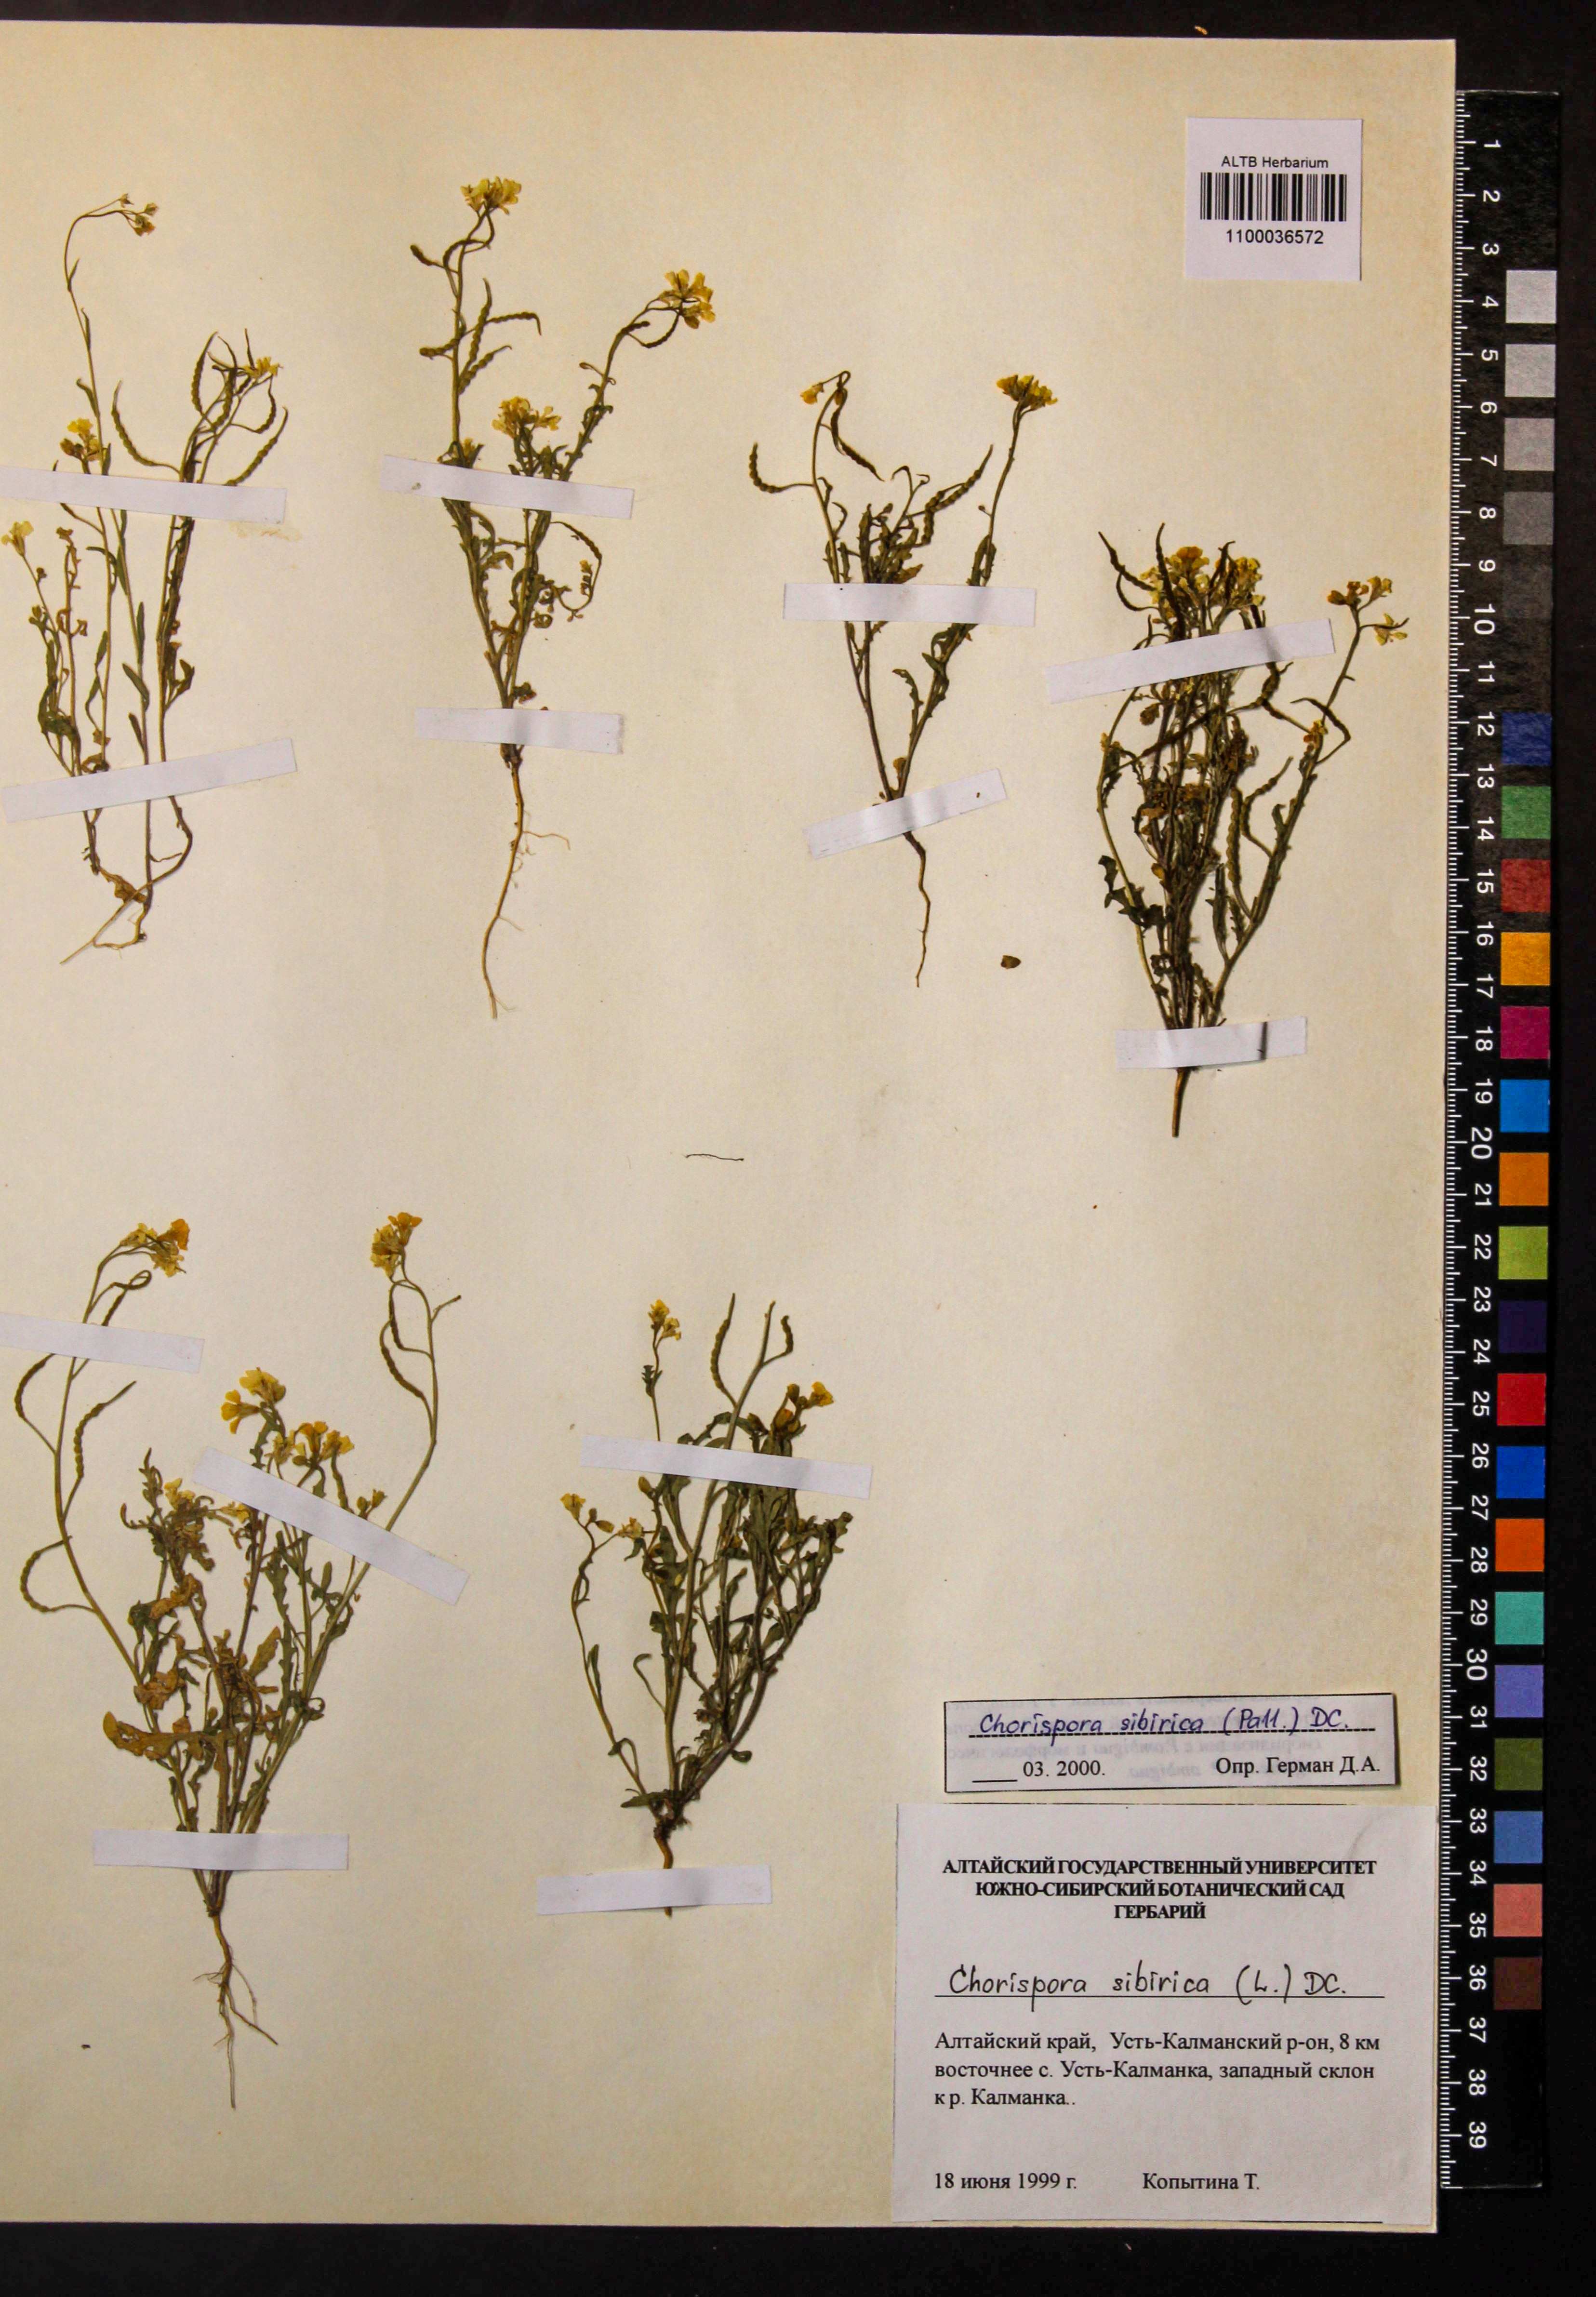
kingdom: Plantae
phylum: Tracheophyta
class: Magnoliopsida
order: Brassicales
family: Brassicaceae
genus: Chorispora
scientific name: Chorispora sibirica
